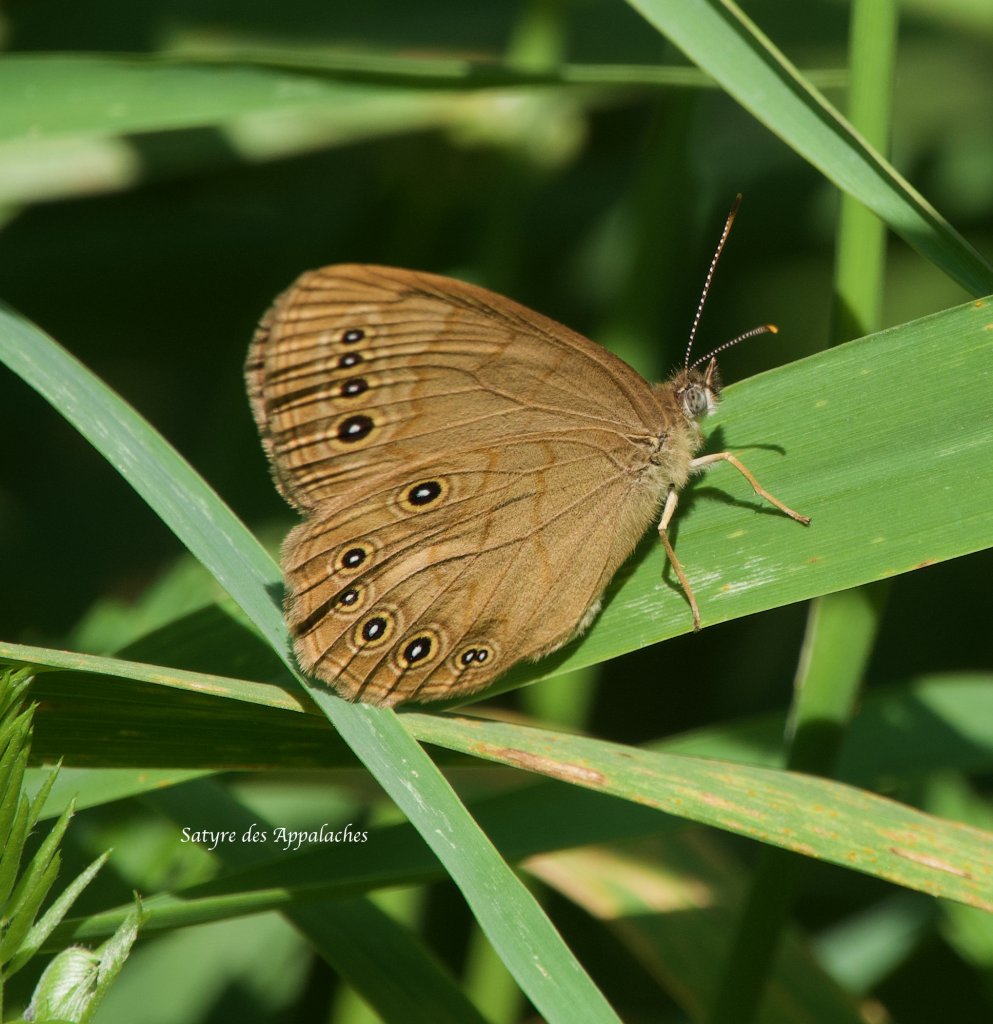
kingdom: Animalia
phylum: Arthropoda
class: Insecta
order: Lepidoptera
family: Nymphalidae
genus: Lethe
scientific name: Lethe eurydice
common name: Eyed Brown
